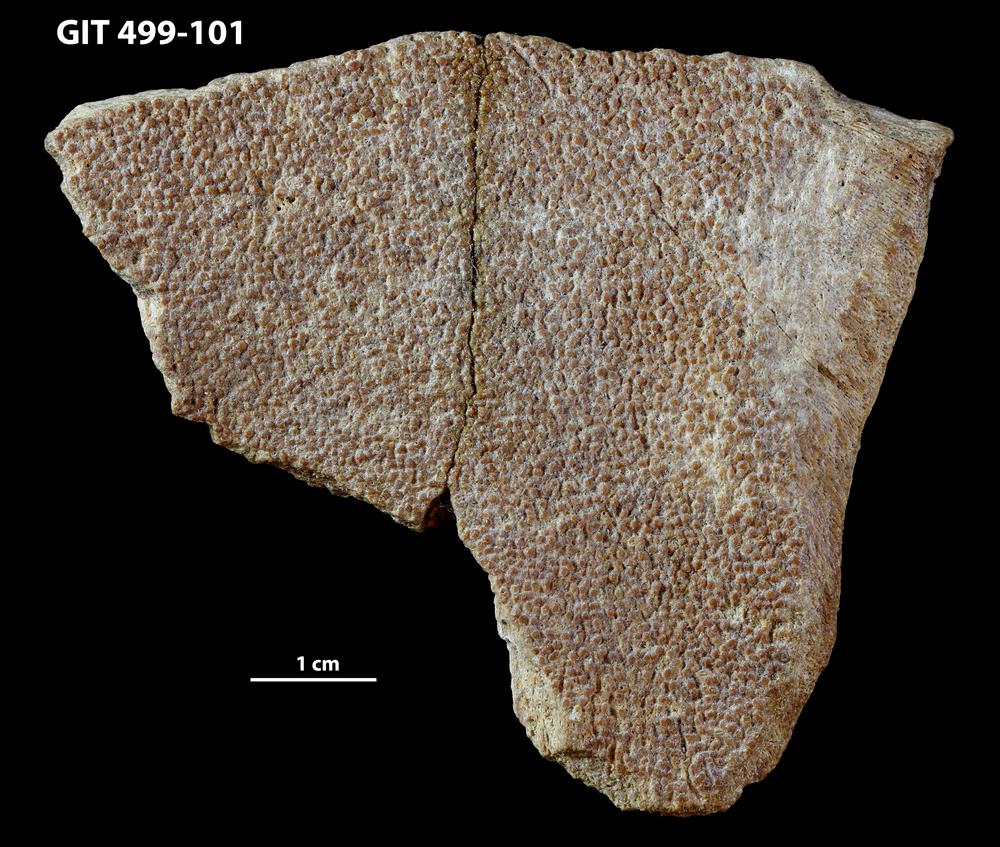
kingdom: Animalia
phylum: Chordata
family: Holoptychiidae
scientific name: Holoptychiidae
